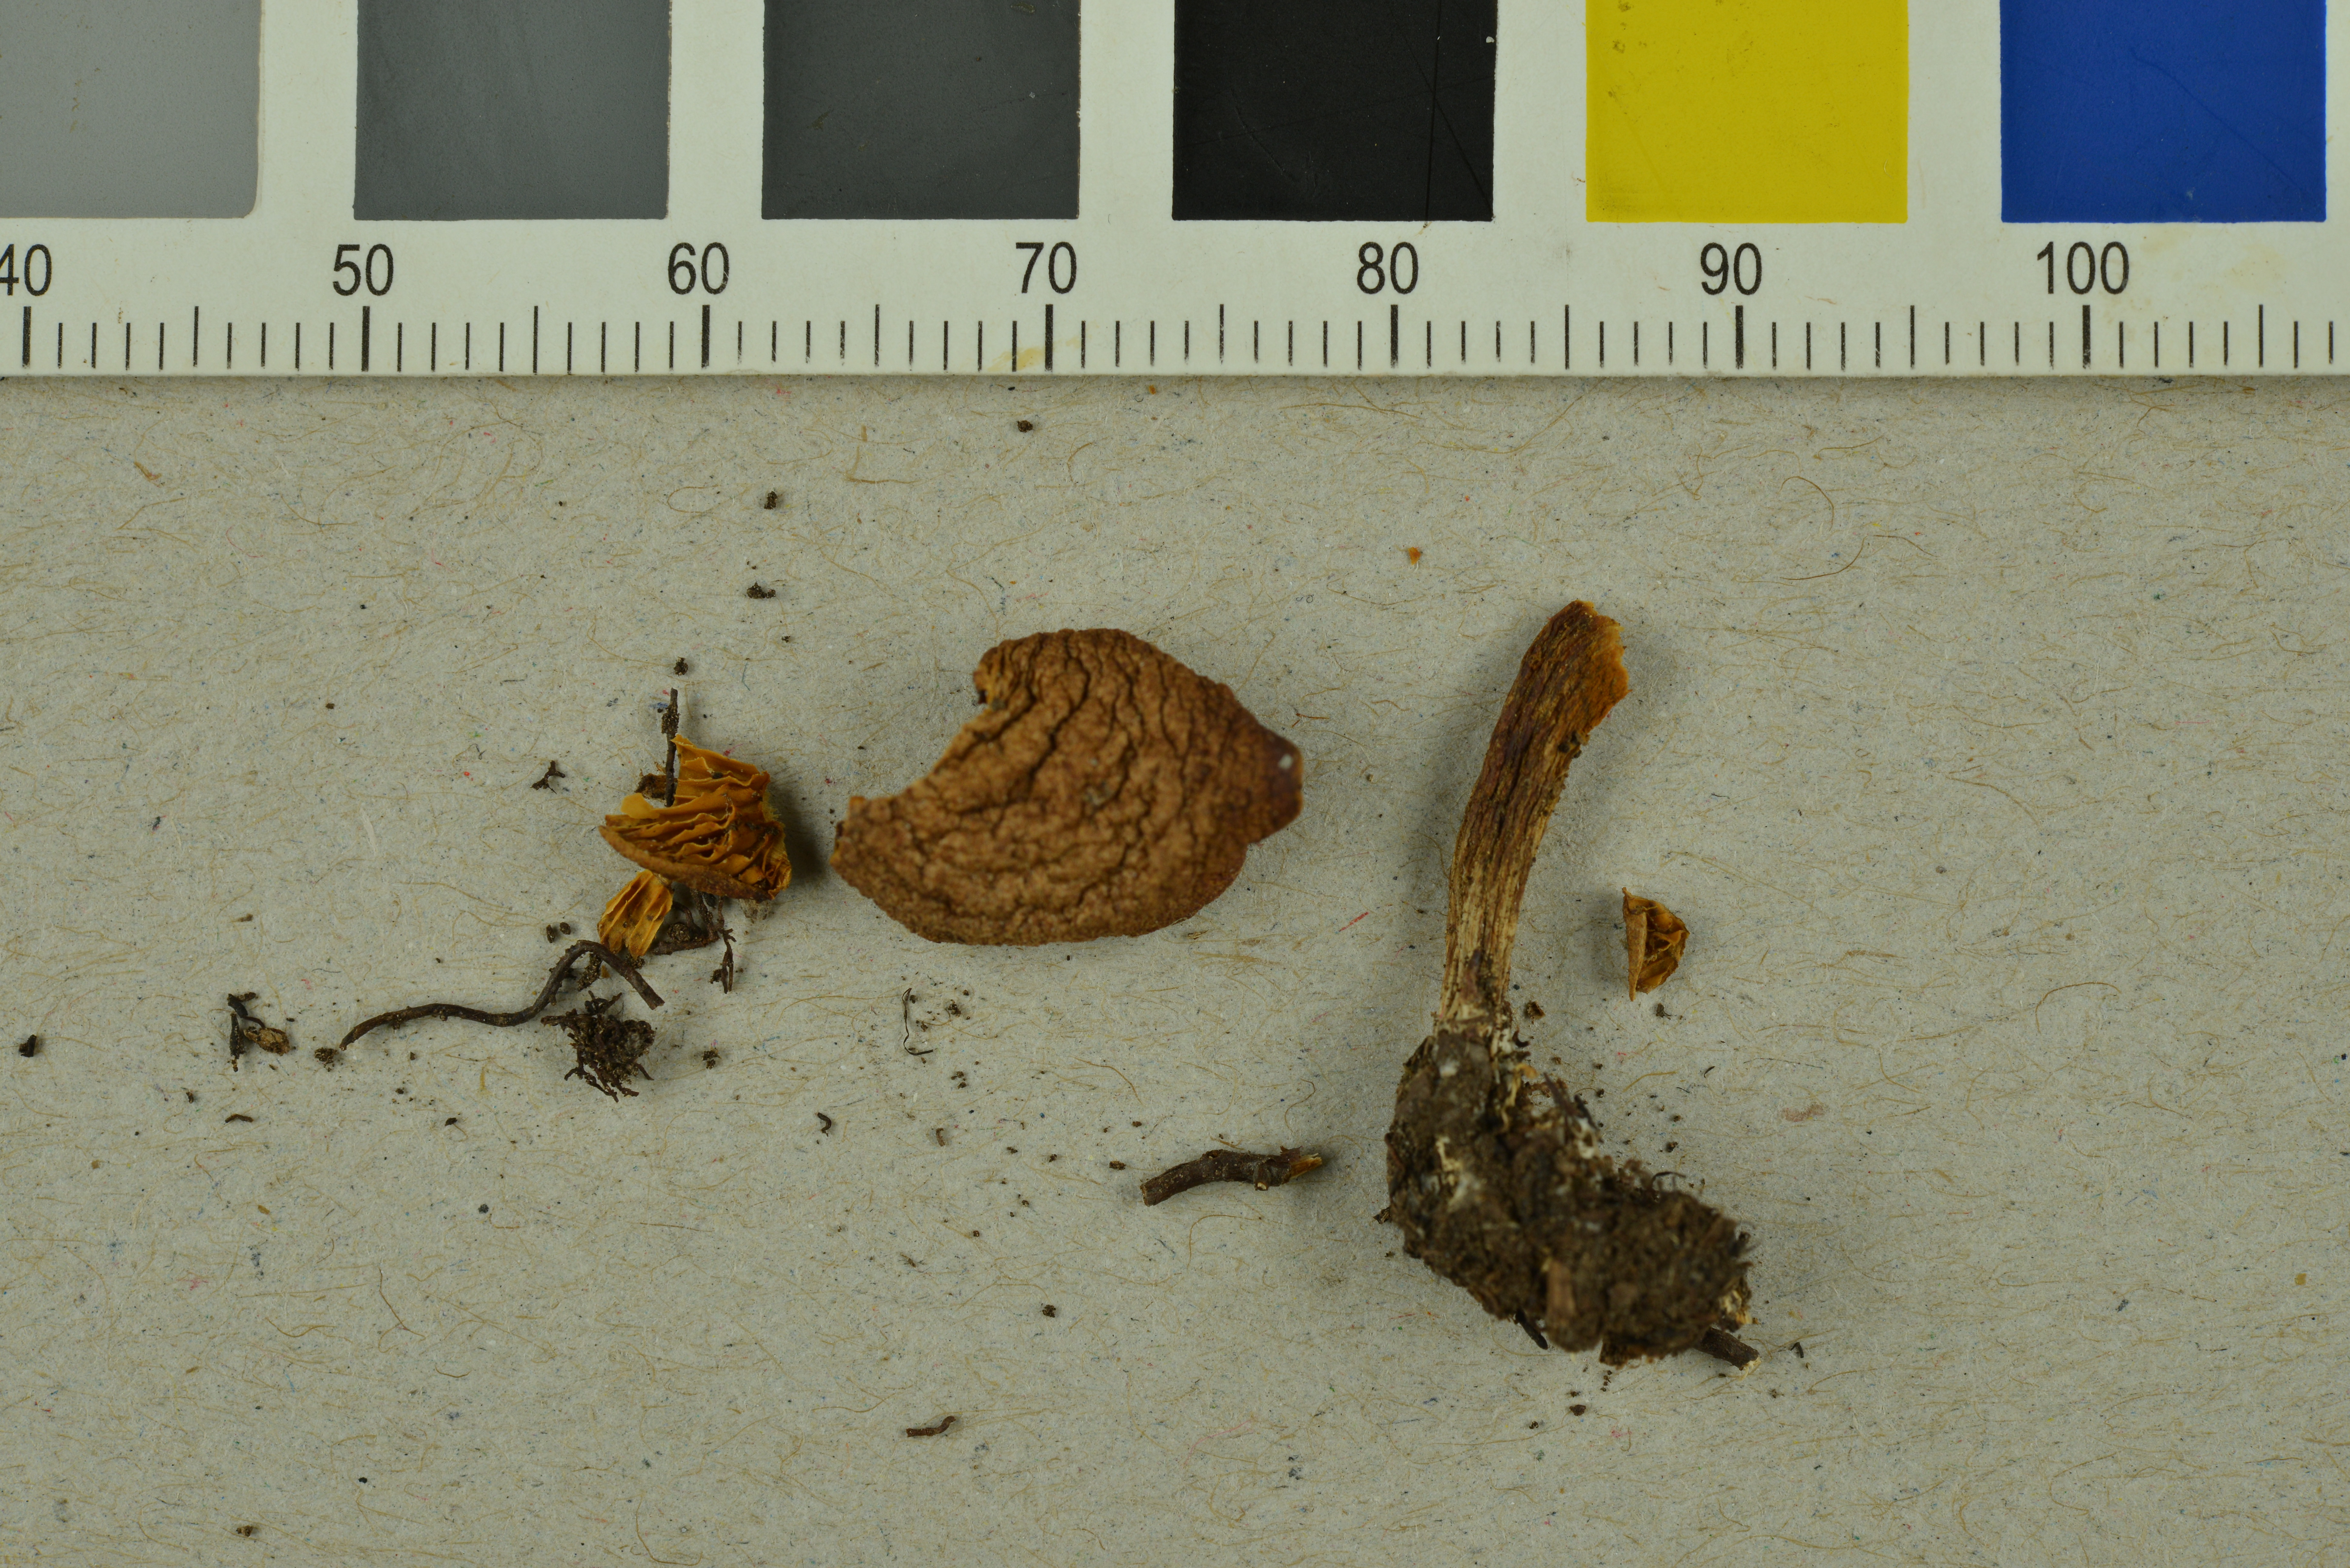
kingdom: Fungi
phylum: Basidiomycota
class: Agaricomycetes
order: Agaricales
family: Hymenogastraceae
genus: Gymnopilus
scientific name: Gymnopilus sapineus
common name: Scaly rustgill
